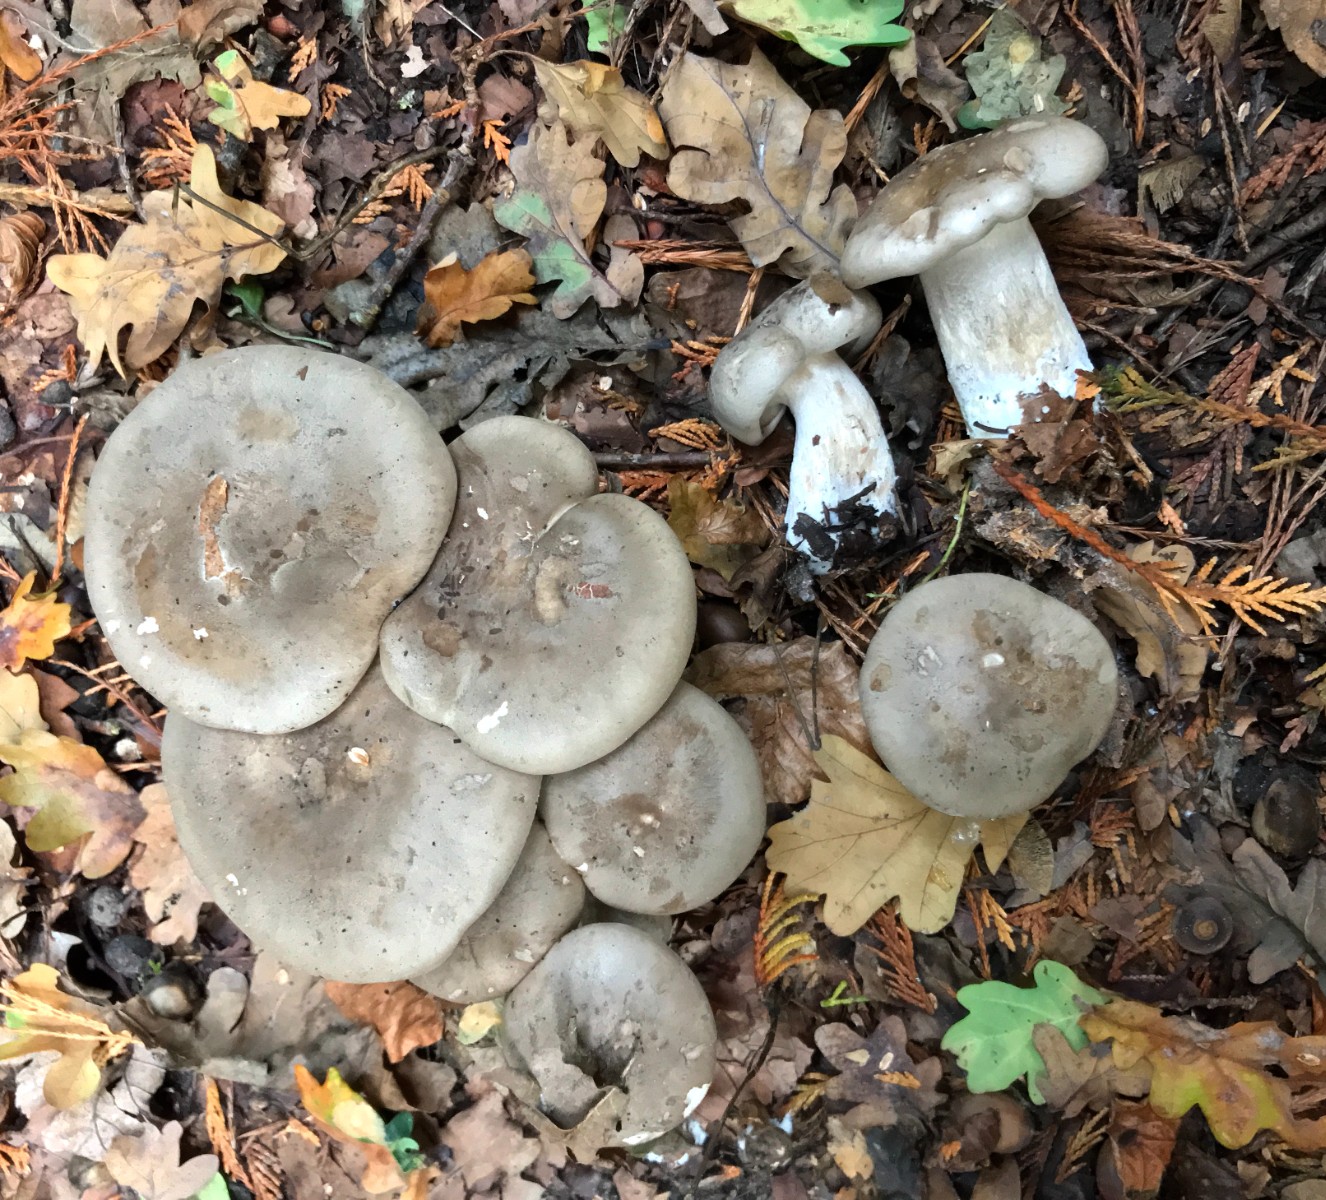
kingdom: Fungi
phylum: Basidiomycota
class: Agaricomycetes
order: Agaricales
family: Tricholomataceae
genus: Clitocybe
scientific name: Clitocybe nebularis
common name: tåge-tragthat
